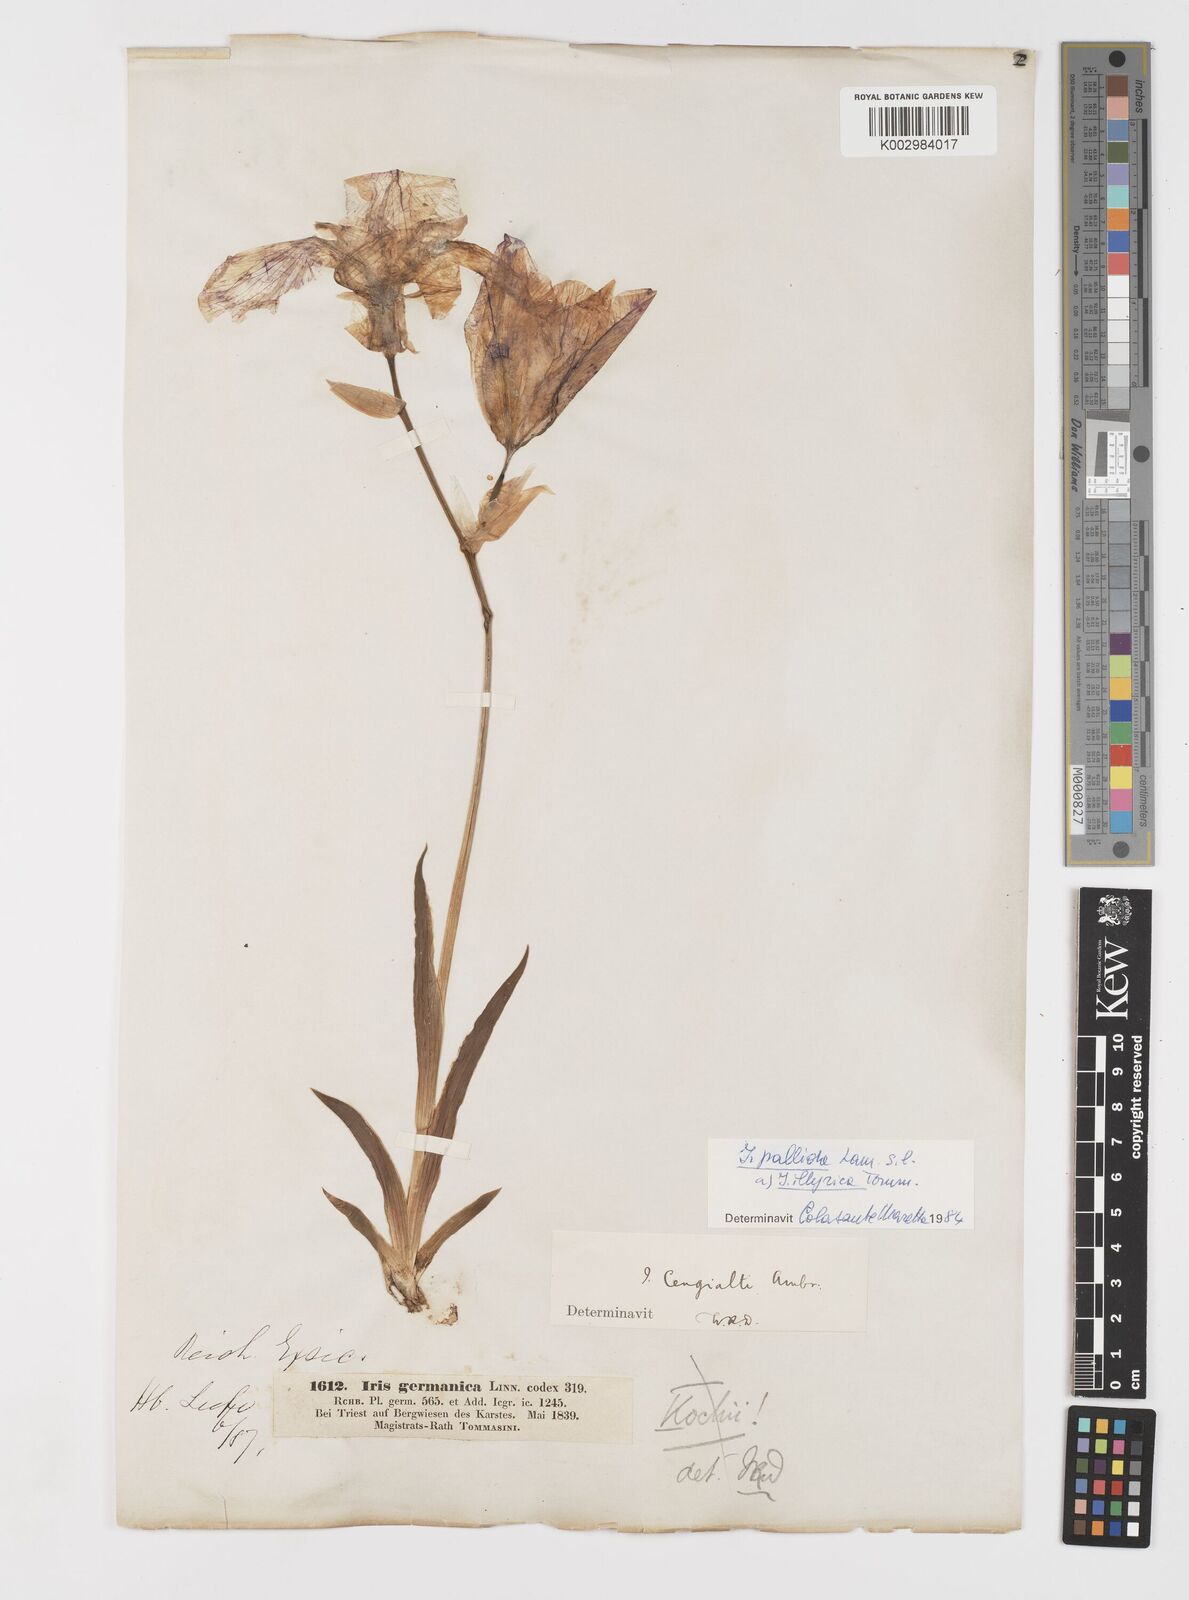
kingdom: Plantae
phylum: Tracheophyta
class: Liliopsida
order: Asparagales
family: Iridaceae
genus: Iris
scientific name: Iris pallida
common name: Sweet iris
